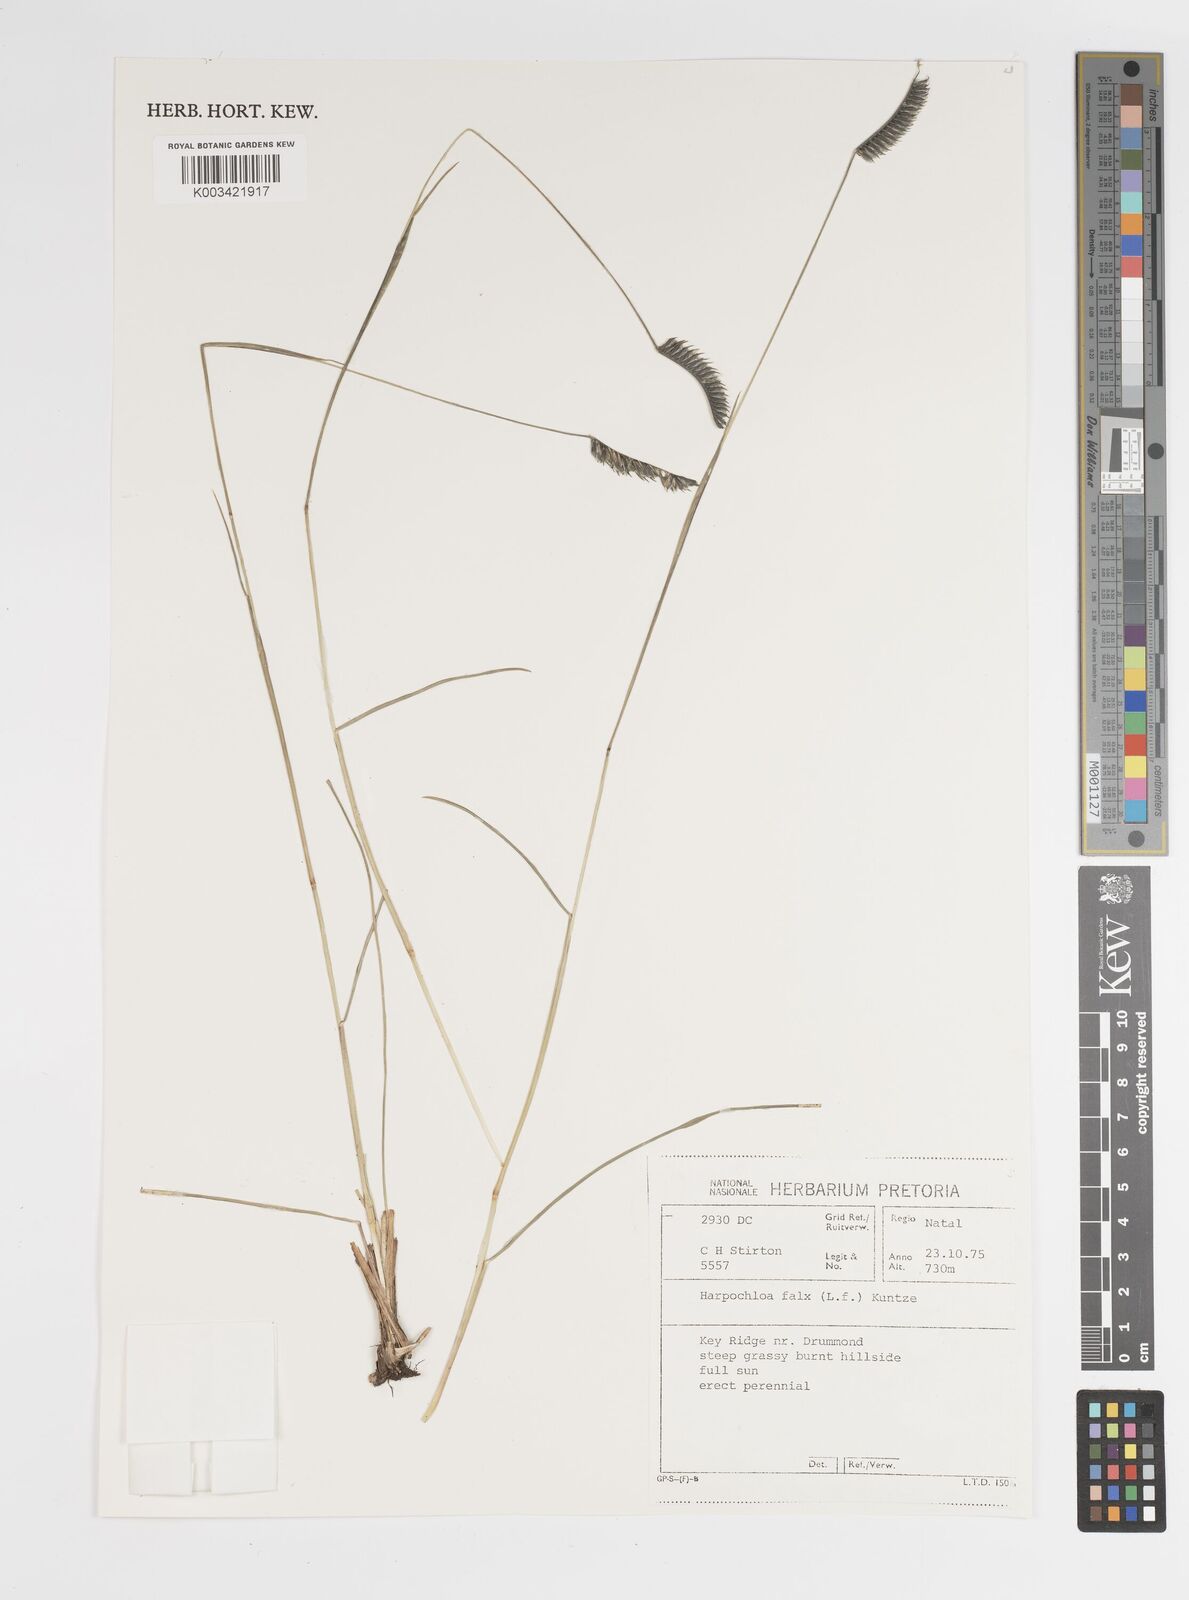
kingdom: Plantae
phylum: Tracheophyta
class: Liliopsida
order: Poales
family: Poaceae
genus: Harpochloa
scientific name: Harpochloa falx
